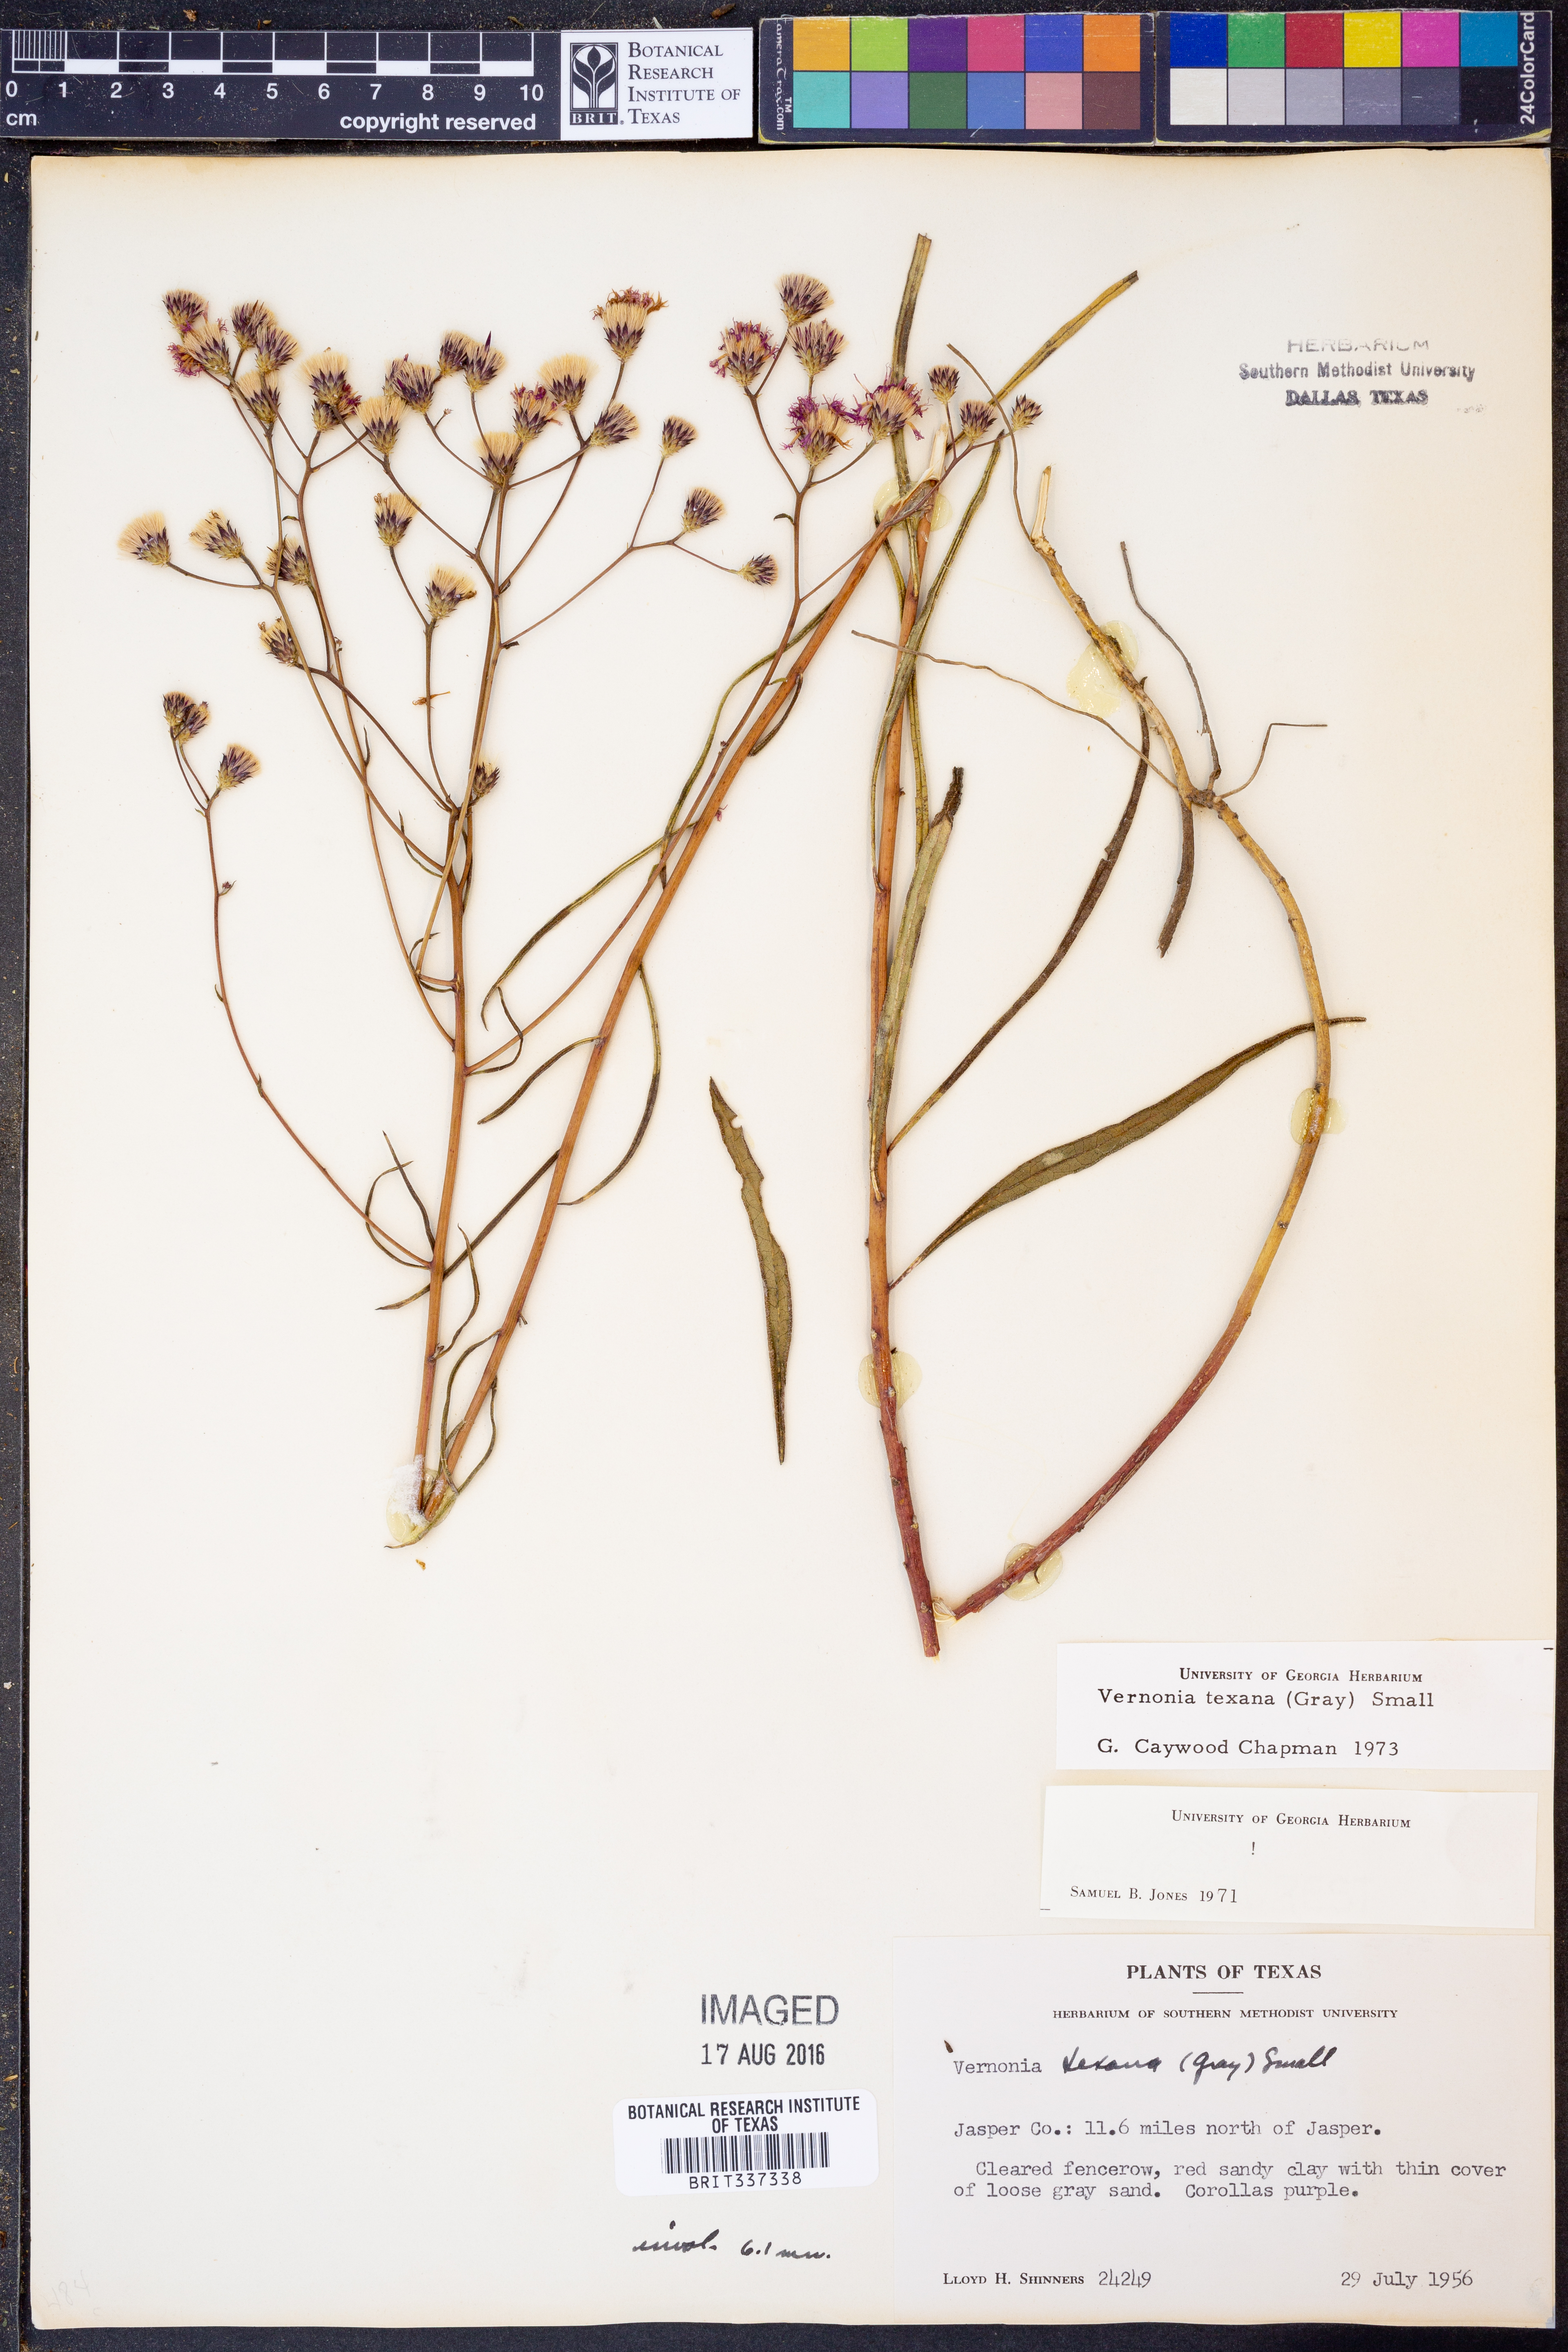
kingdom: Plantae
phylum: Tracheophyta
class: Magnoliopsida
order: Asterales
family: Asteraceae
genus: Vernonia
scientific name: Vernonia texana
